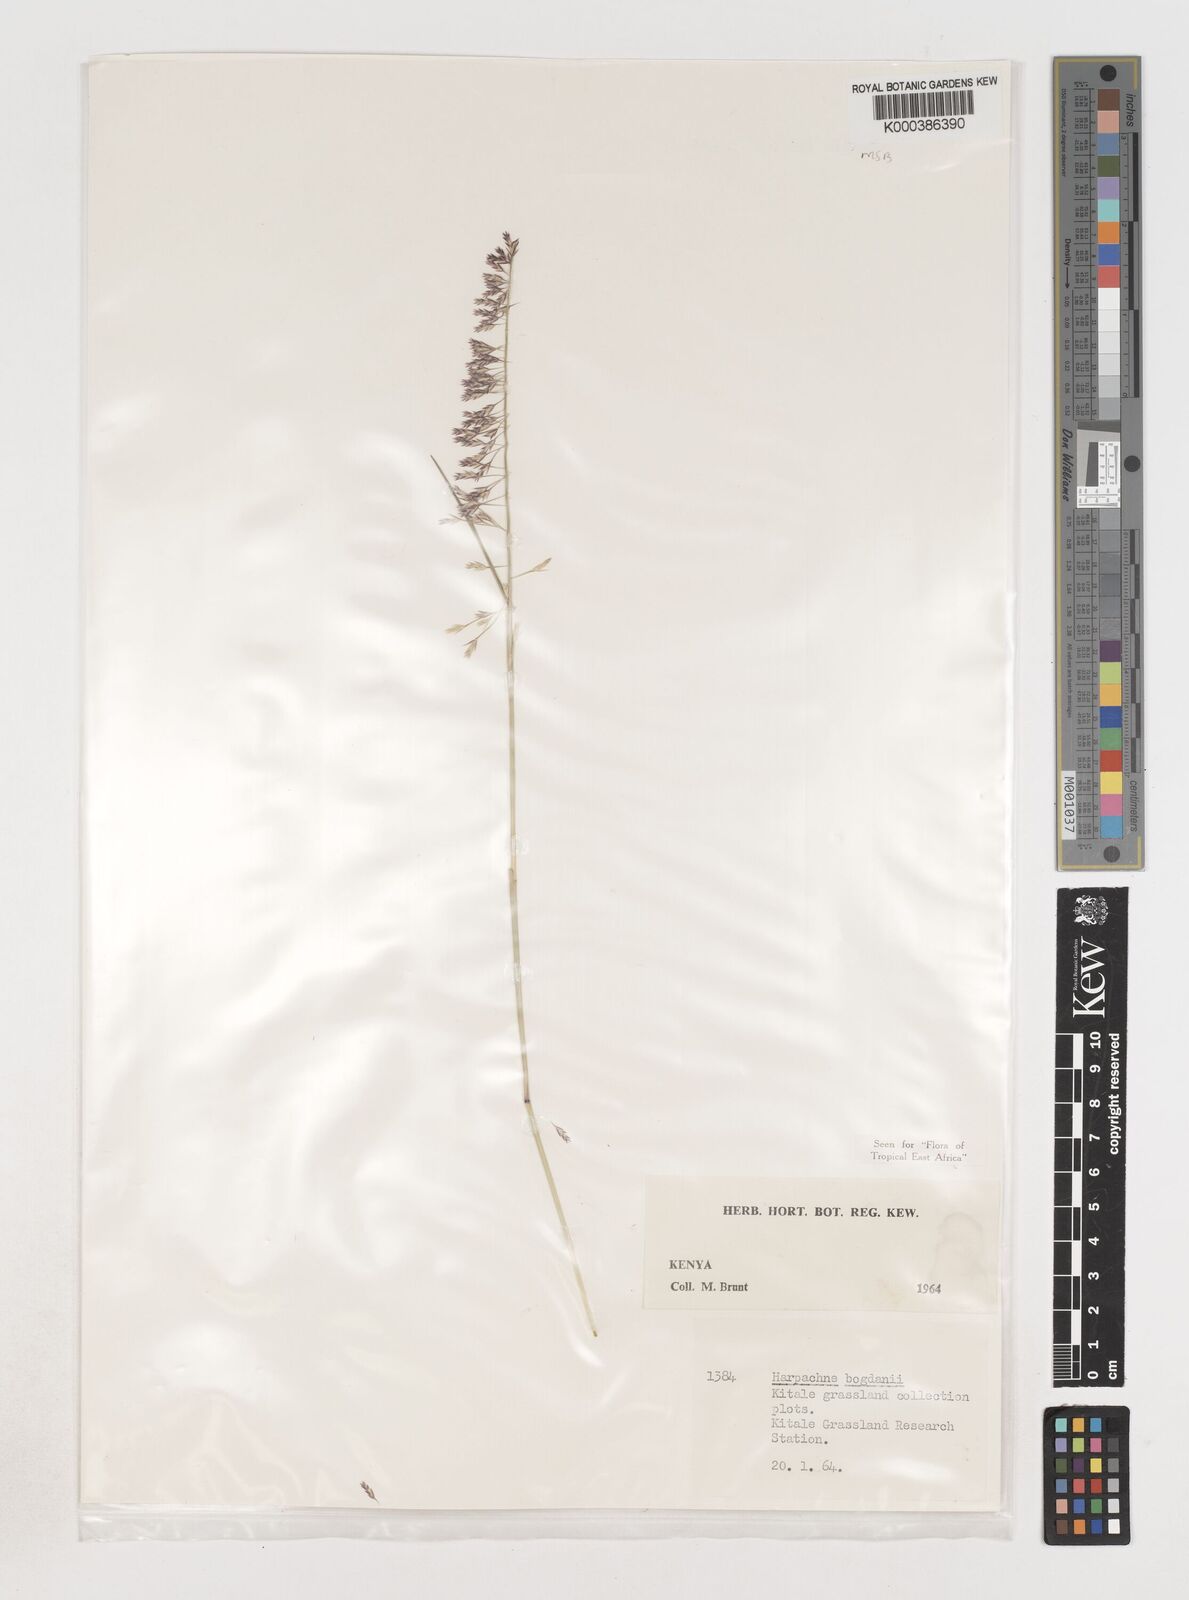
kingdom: Plantae
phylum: Tracheophyta
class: Liliopsida
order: Poales
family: Poaceae
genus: Harpachne
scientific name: Harpachne bogdanii
